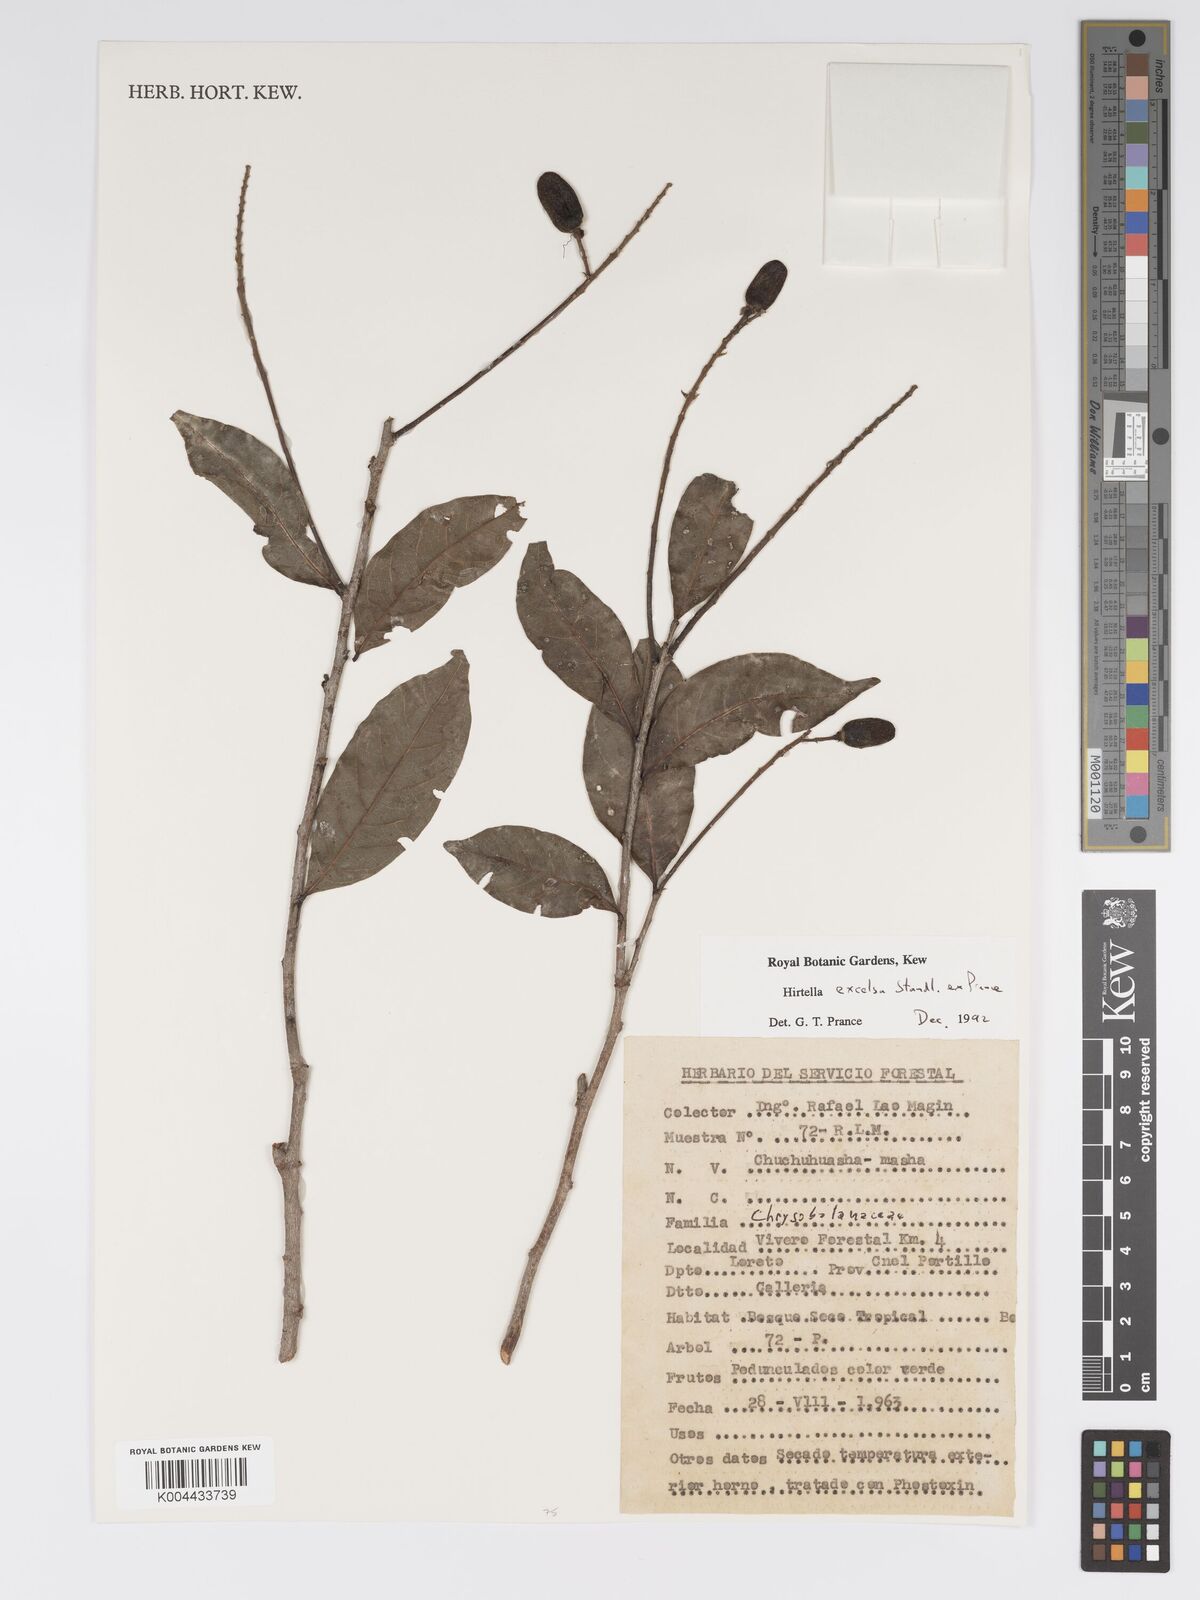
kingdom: Plantae
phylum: Tracheophyta
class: Magnoliopsida
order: Malpighiales
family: Chrysobalanaceae
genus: Hirtella
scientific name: Hirtella excelsa
